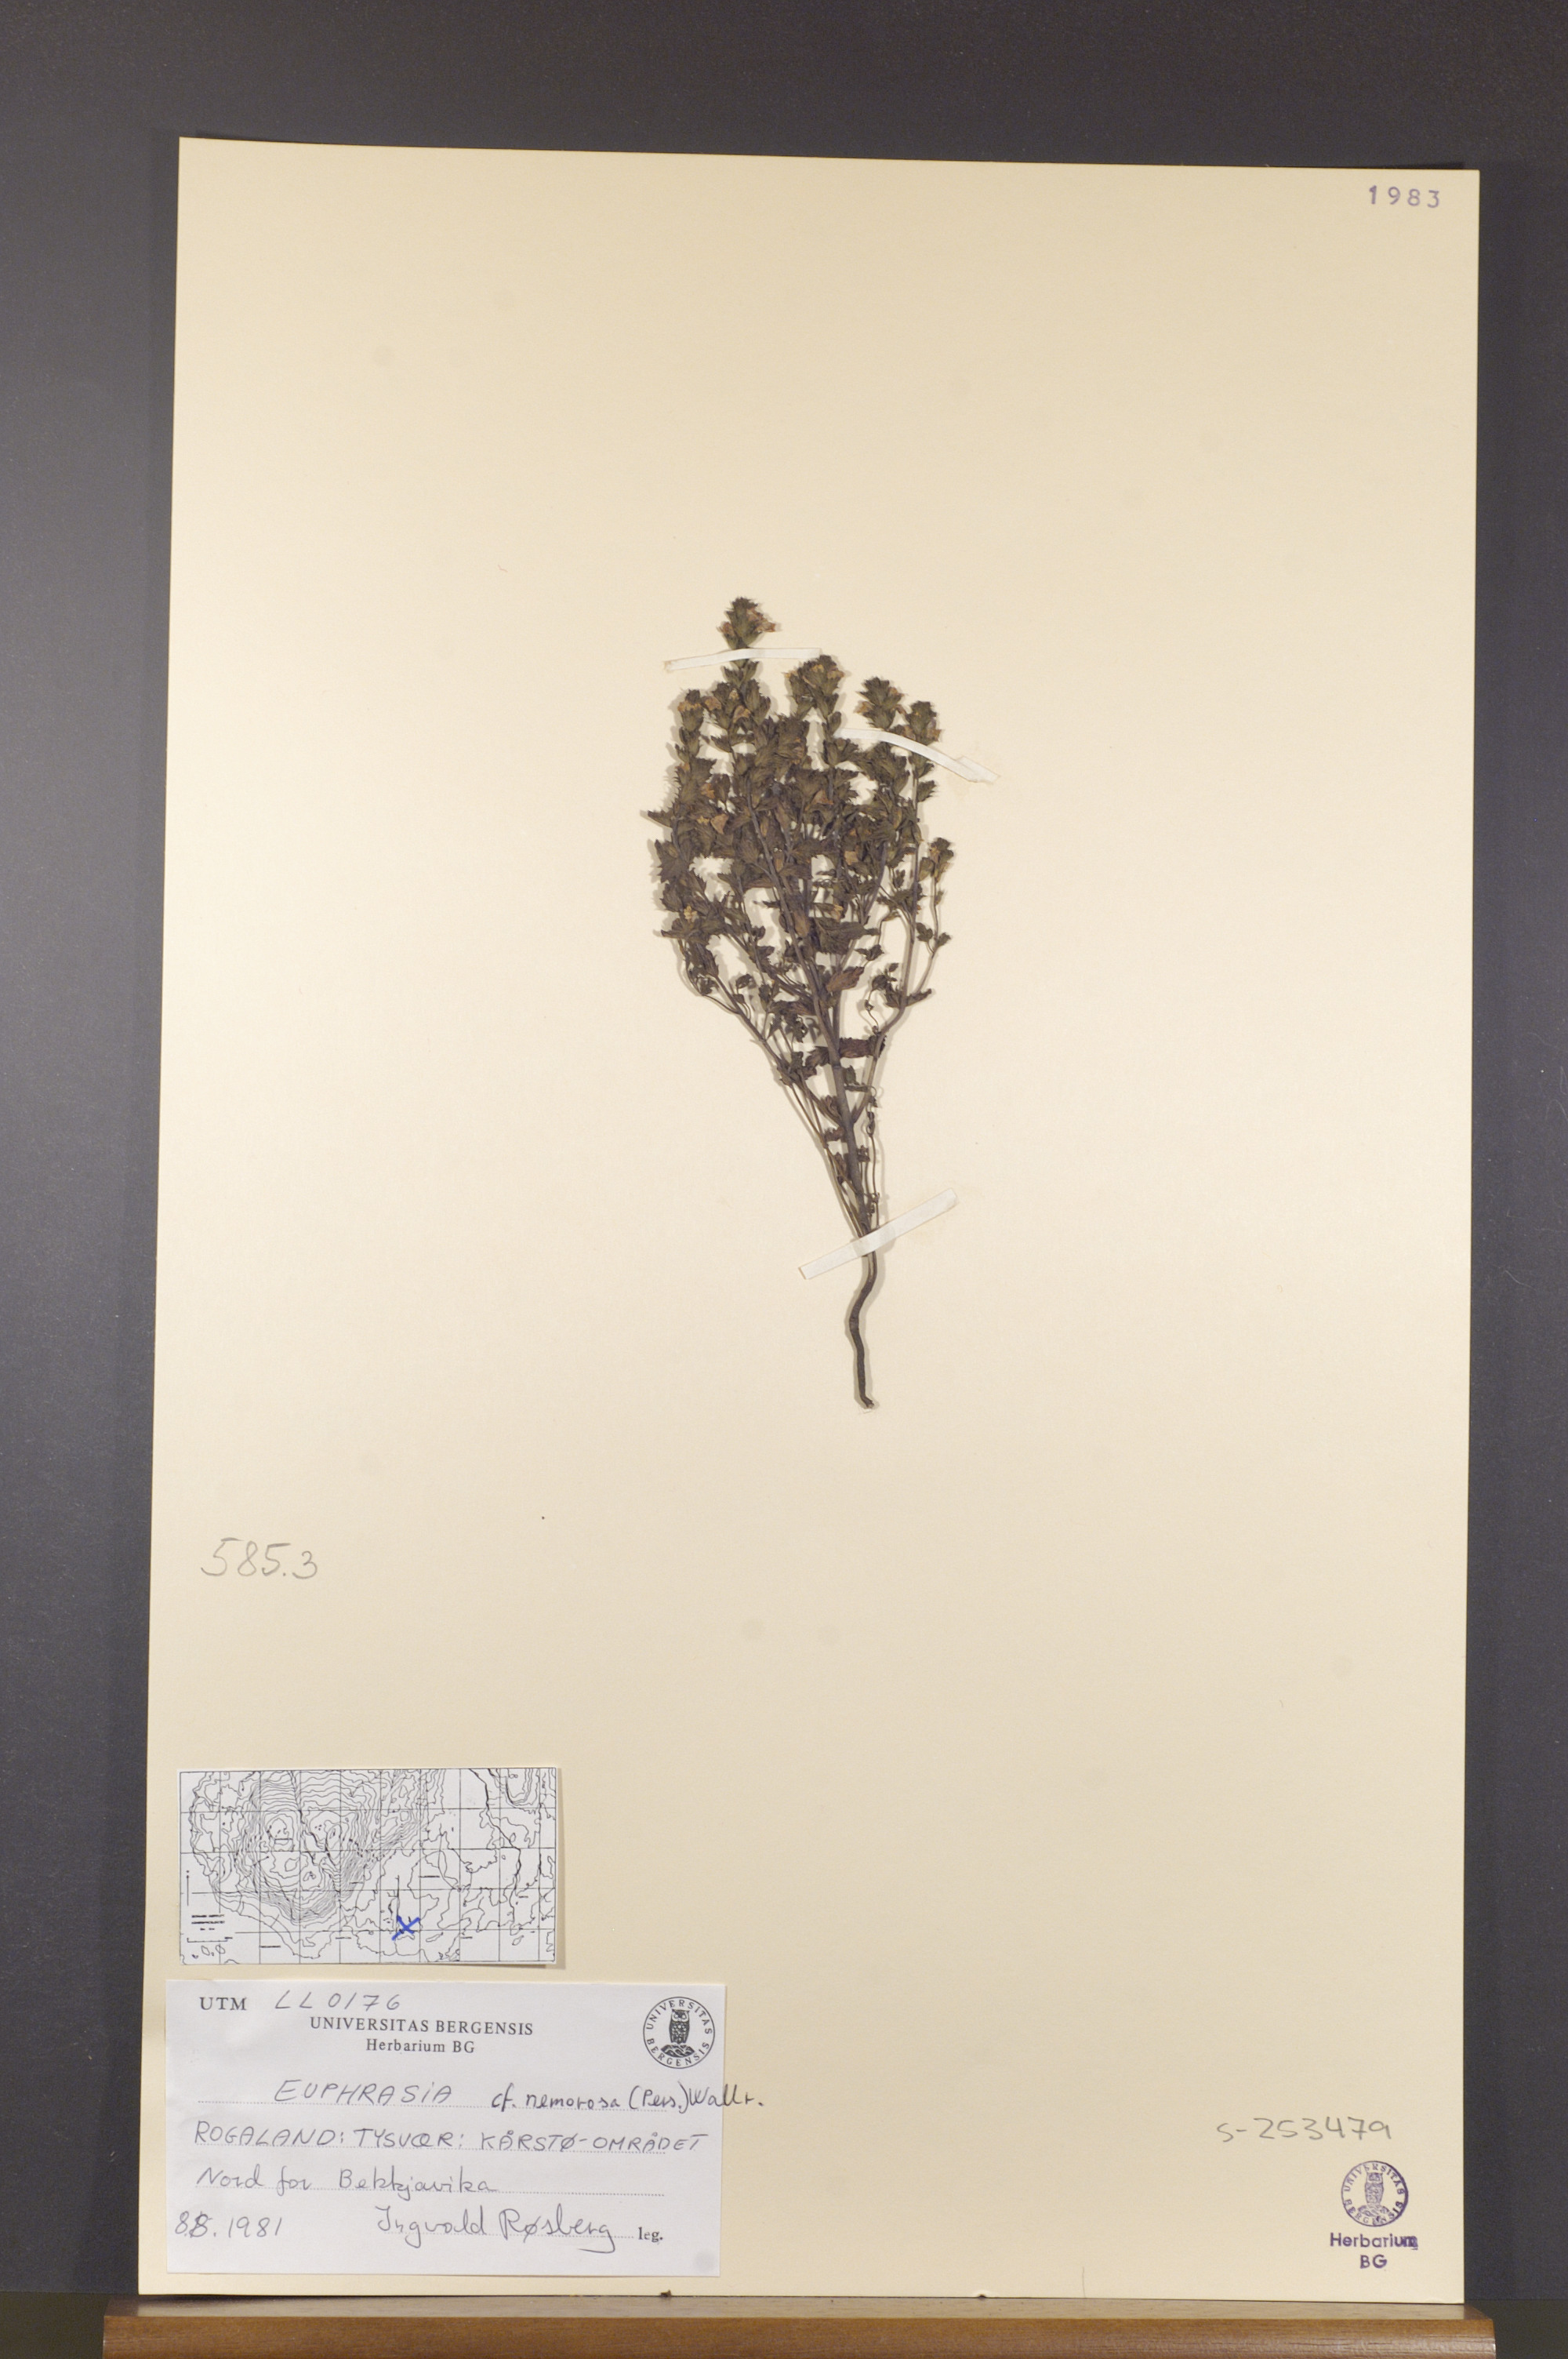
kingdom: Plantae
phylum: Tracheophyta
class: Magnoliopsida
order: Lamiales
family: Orobanchaceae
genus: Euphrasia
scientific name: Euphrasia nemorosa
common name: Common eyebright
